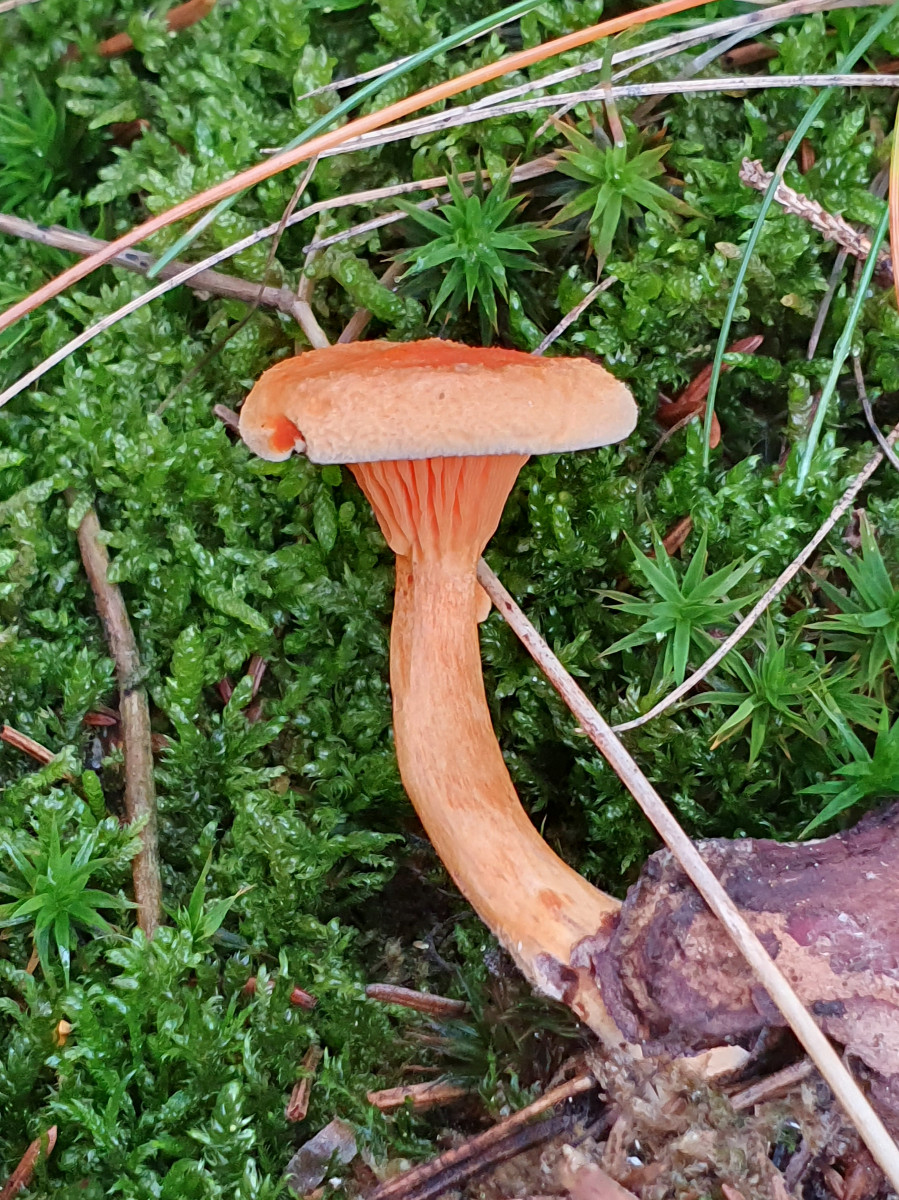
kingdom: Fungi
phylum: Basidiomycota
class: Agaricomycetes
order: Boletales
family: Hygrophoropsidaceae
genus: Hygrophoropsis
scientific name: Hygrophoropsis aurantiaca
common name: almindelig orangekantarel
